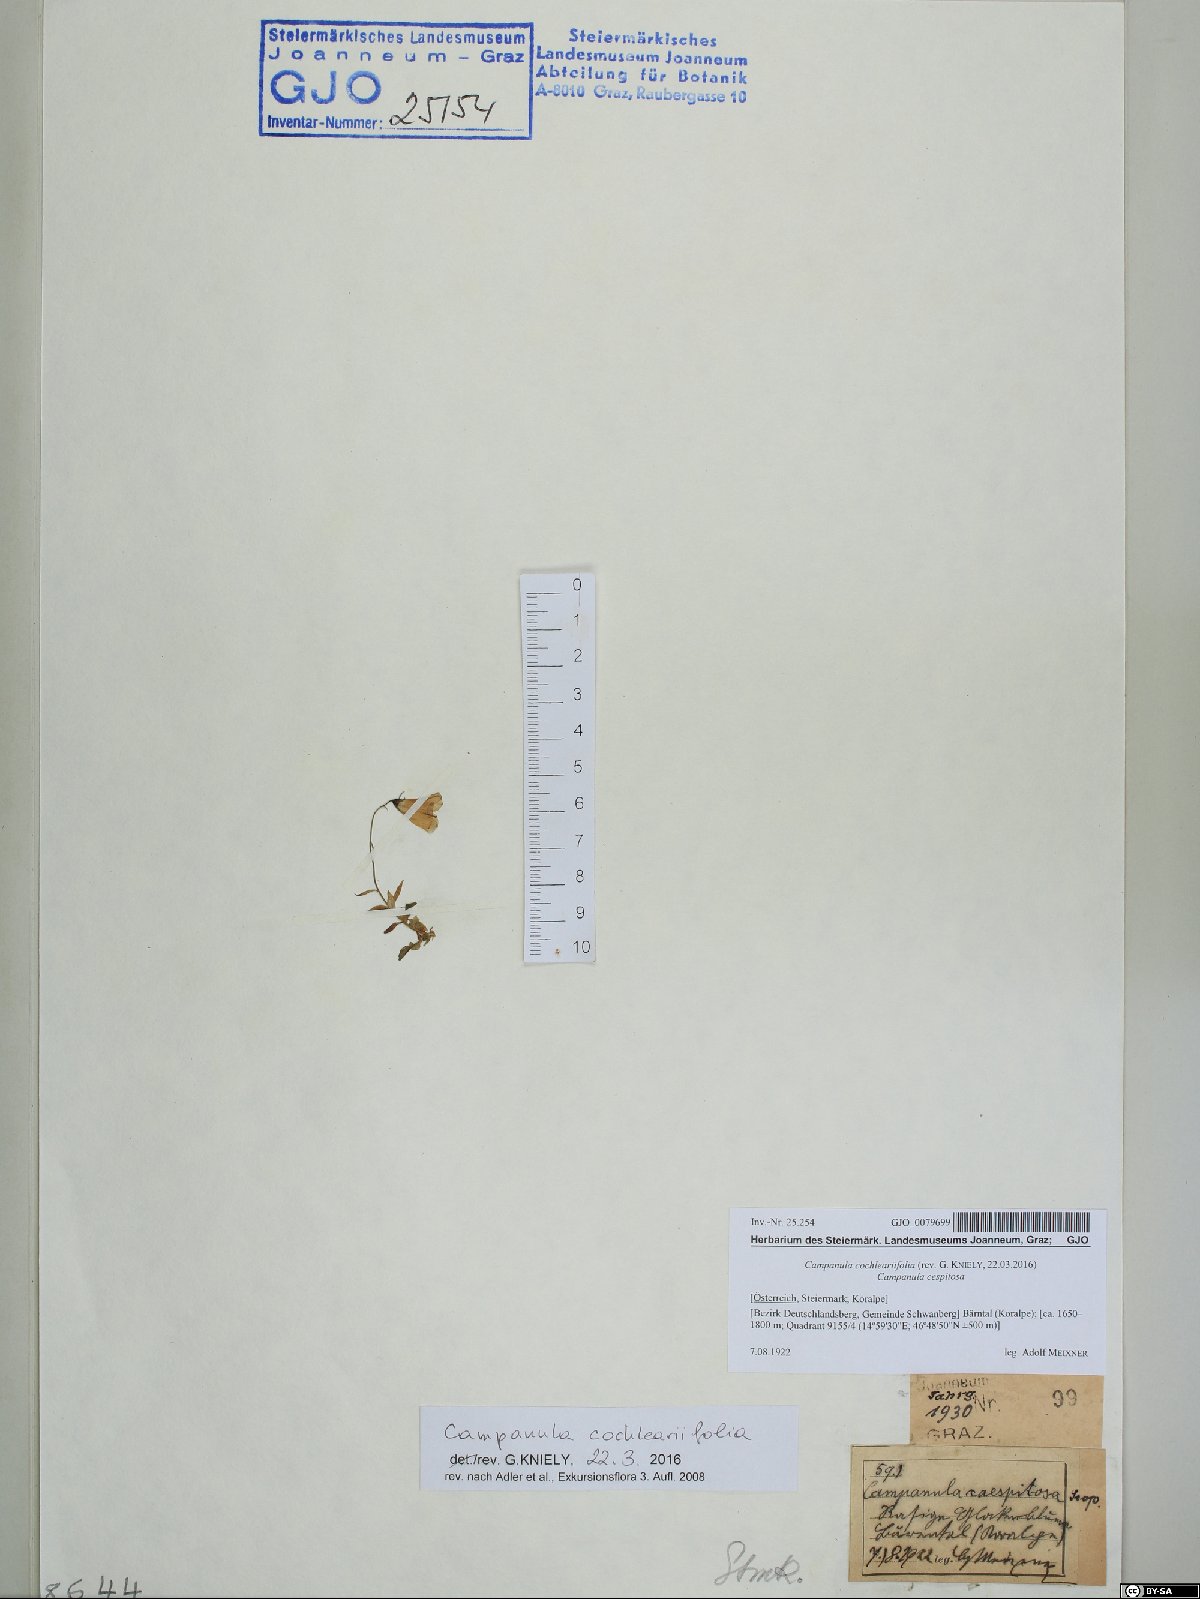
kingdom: Plantae
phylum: Tracheophyta
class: Magnoliopsida
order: Asterales
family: Campanulaceae
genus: Campanula
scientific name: Campanula cochleariifolia
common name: Fairies'-thimbles
